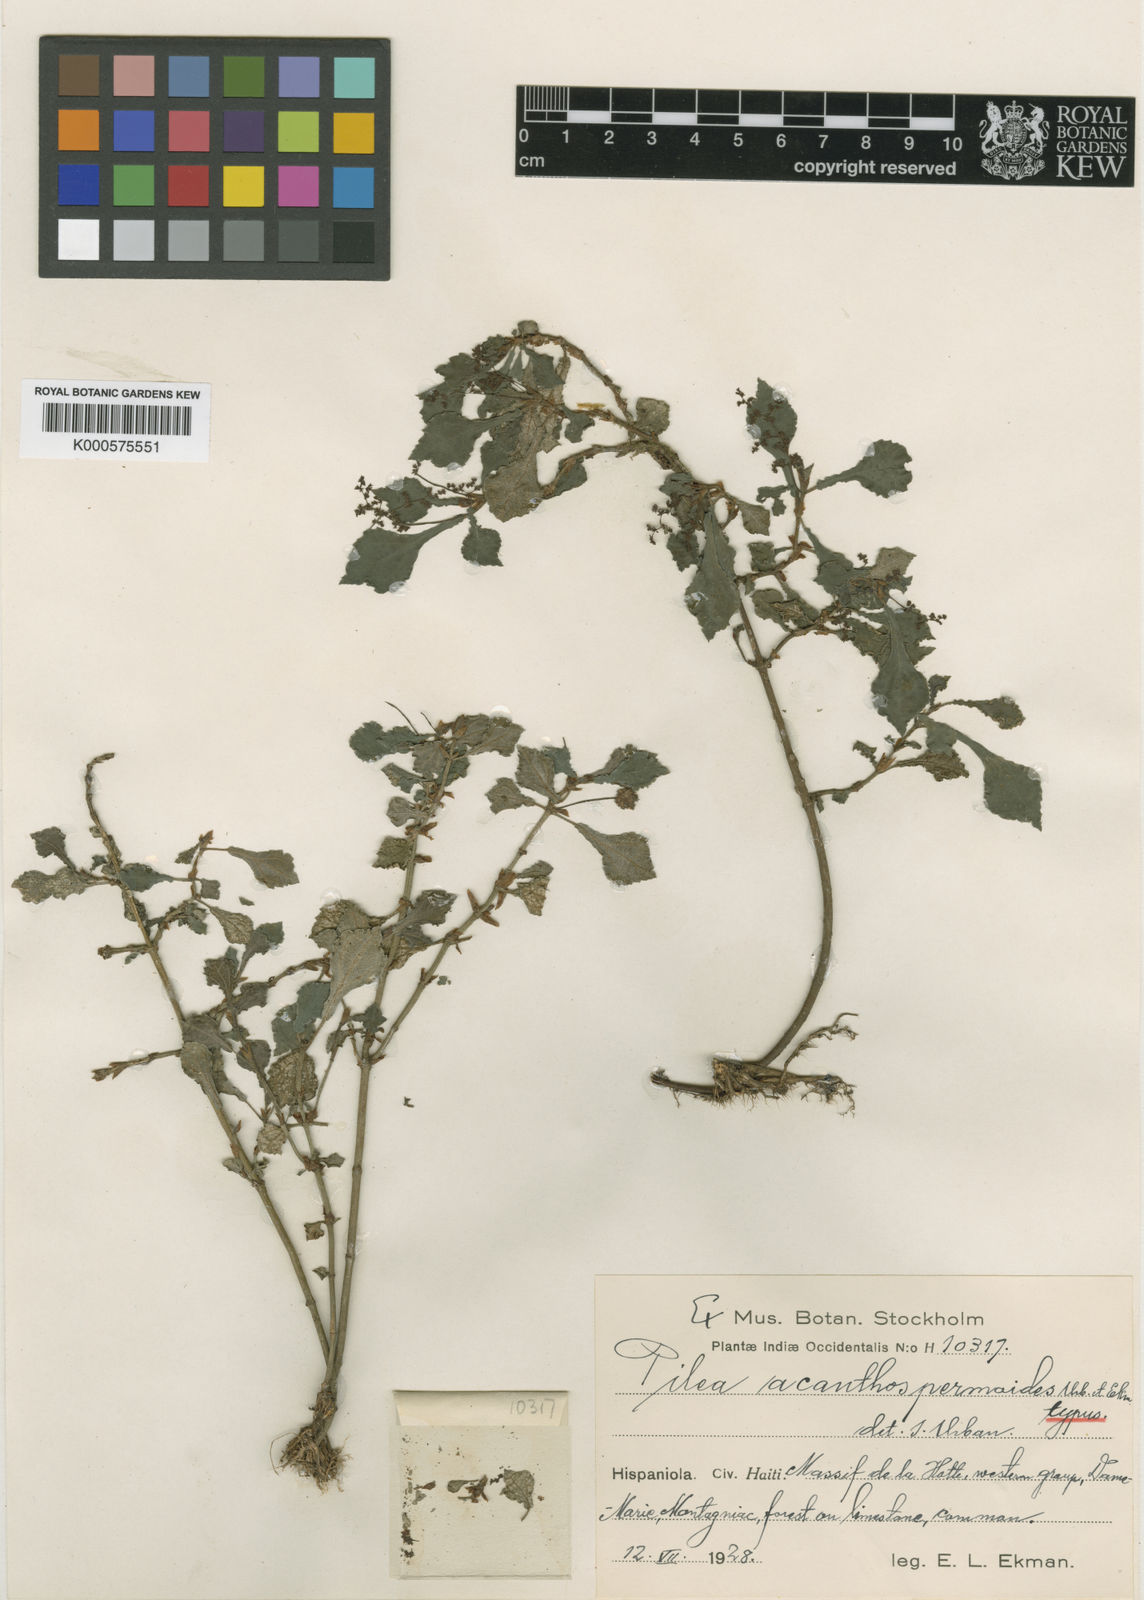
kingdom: Plantae
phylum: Tracheophyta
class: Magnoliopsida
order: Rosales
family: Urticaceae
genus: Pilea
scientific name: Pilea acanthospermoides
